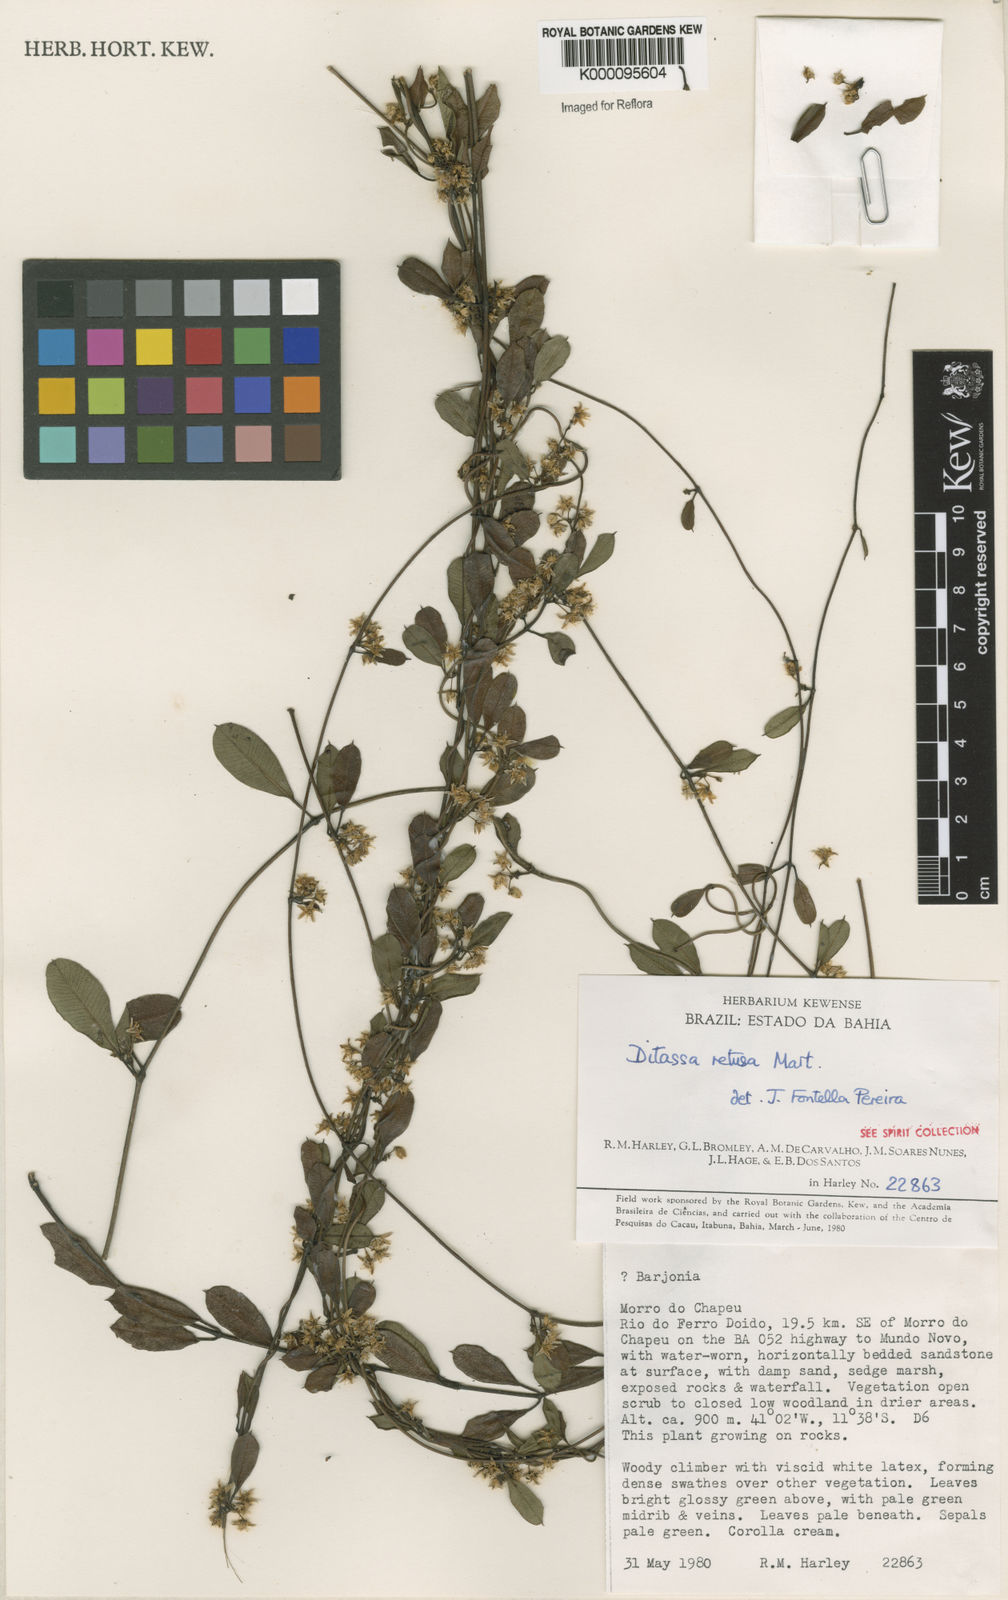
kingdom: Plantae
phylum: Tracheophyta
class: Magnoliopsida
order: Gentianales
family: Apocynaceae
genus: Ditassa
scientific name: Ditassa retusa
